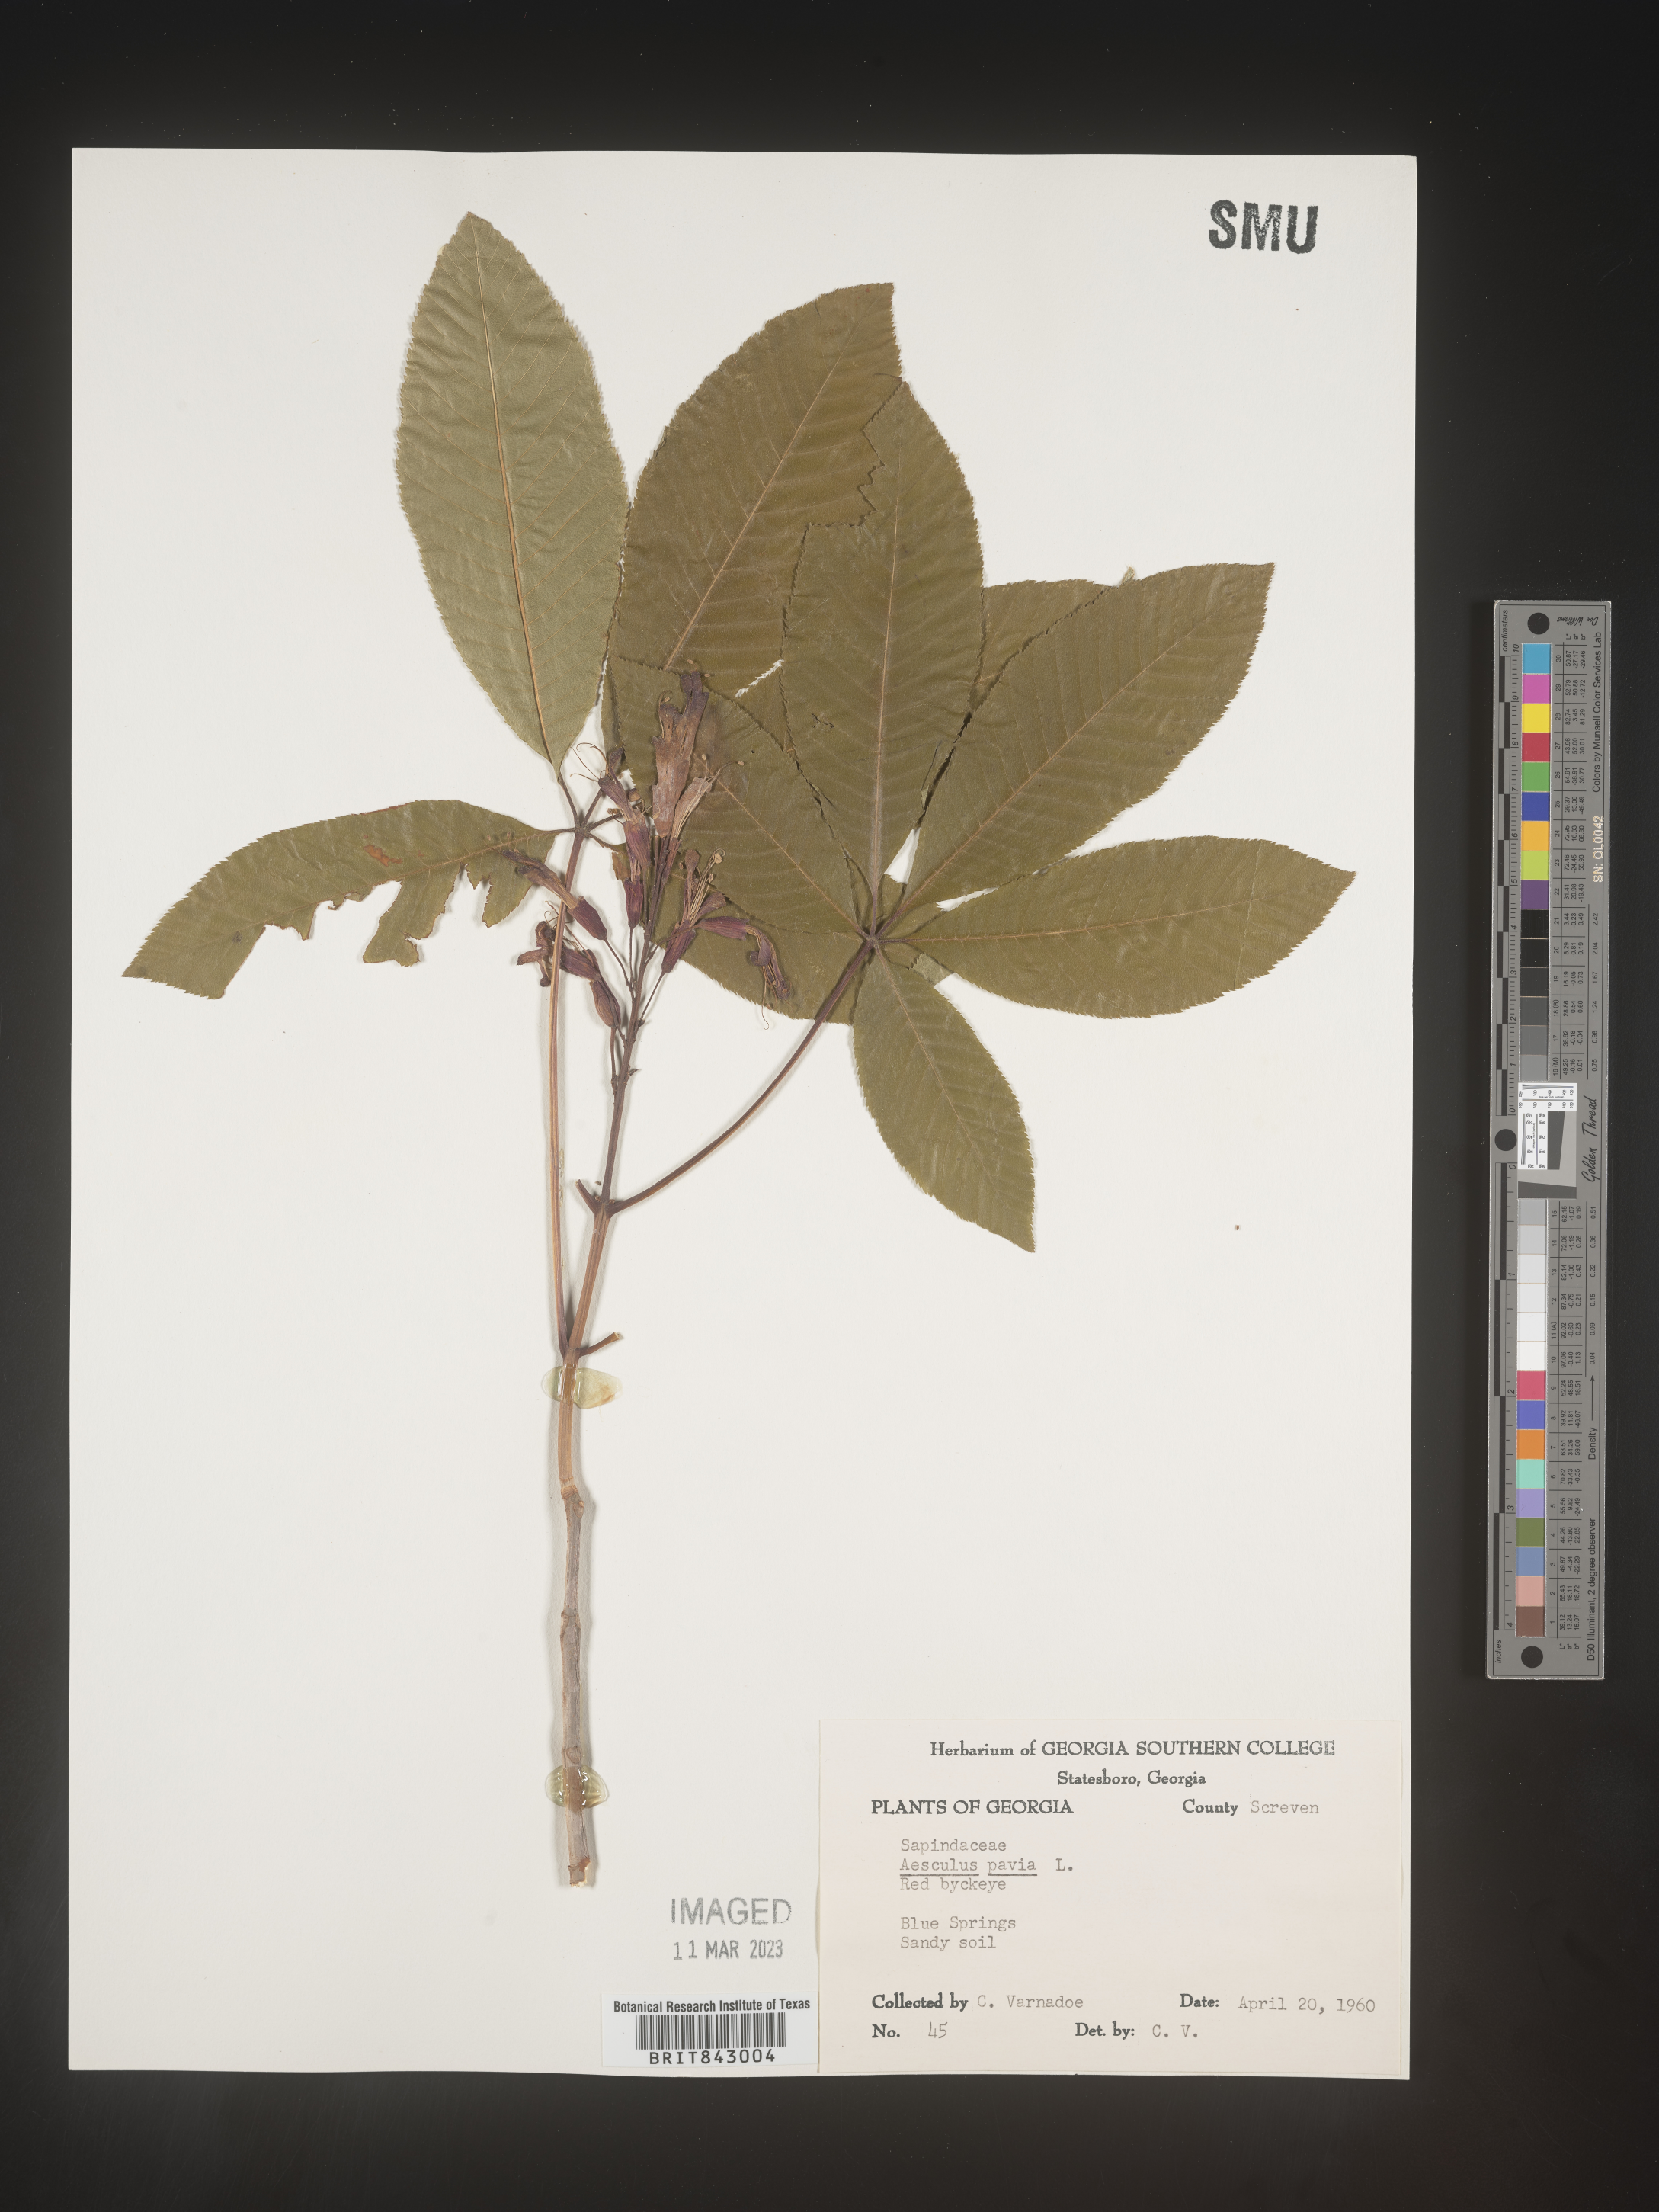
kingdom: Plantae
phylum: Tracheophyta
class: Magnoliopsida
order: Sapindales
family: Sapindaceae
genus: Aesculus
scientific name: Aesculus pavia
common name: Red buckeye
